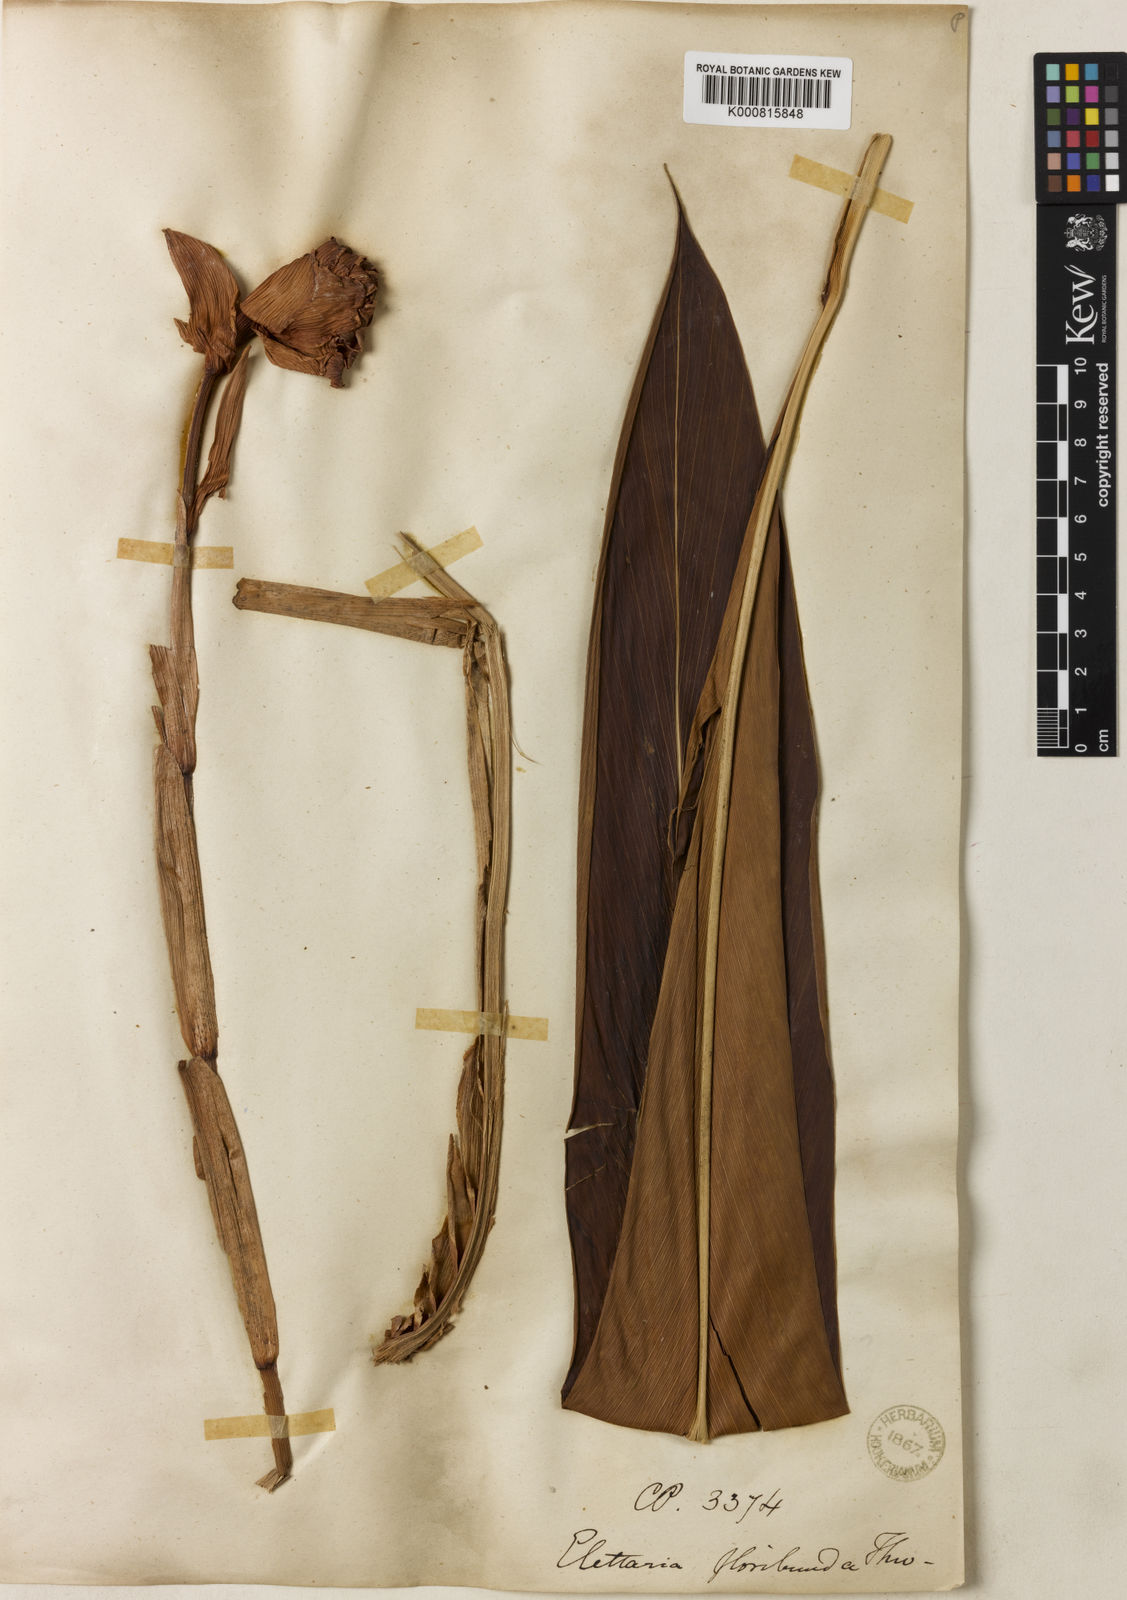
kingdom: Plantae
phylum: Tracheophyta
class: Liliopsida
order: Zingiberales
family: Zingiberaceae
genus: Alpinia
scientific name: Alpinia abundiflora
